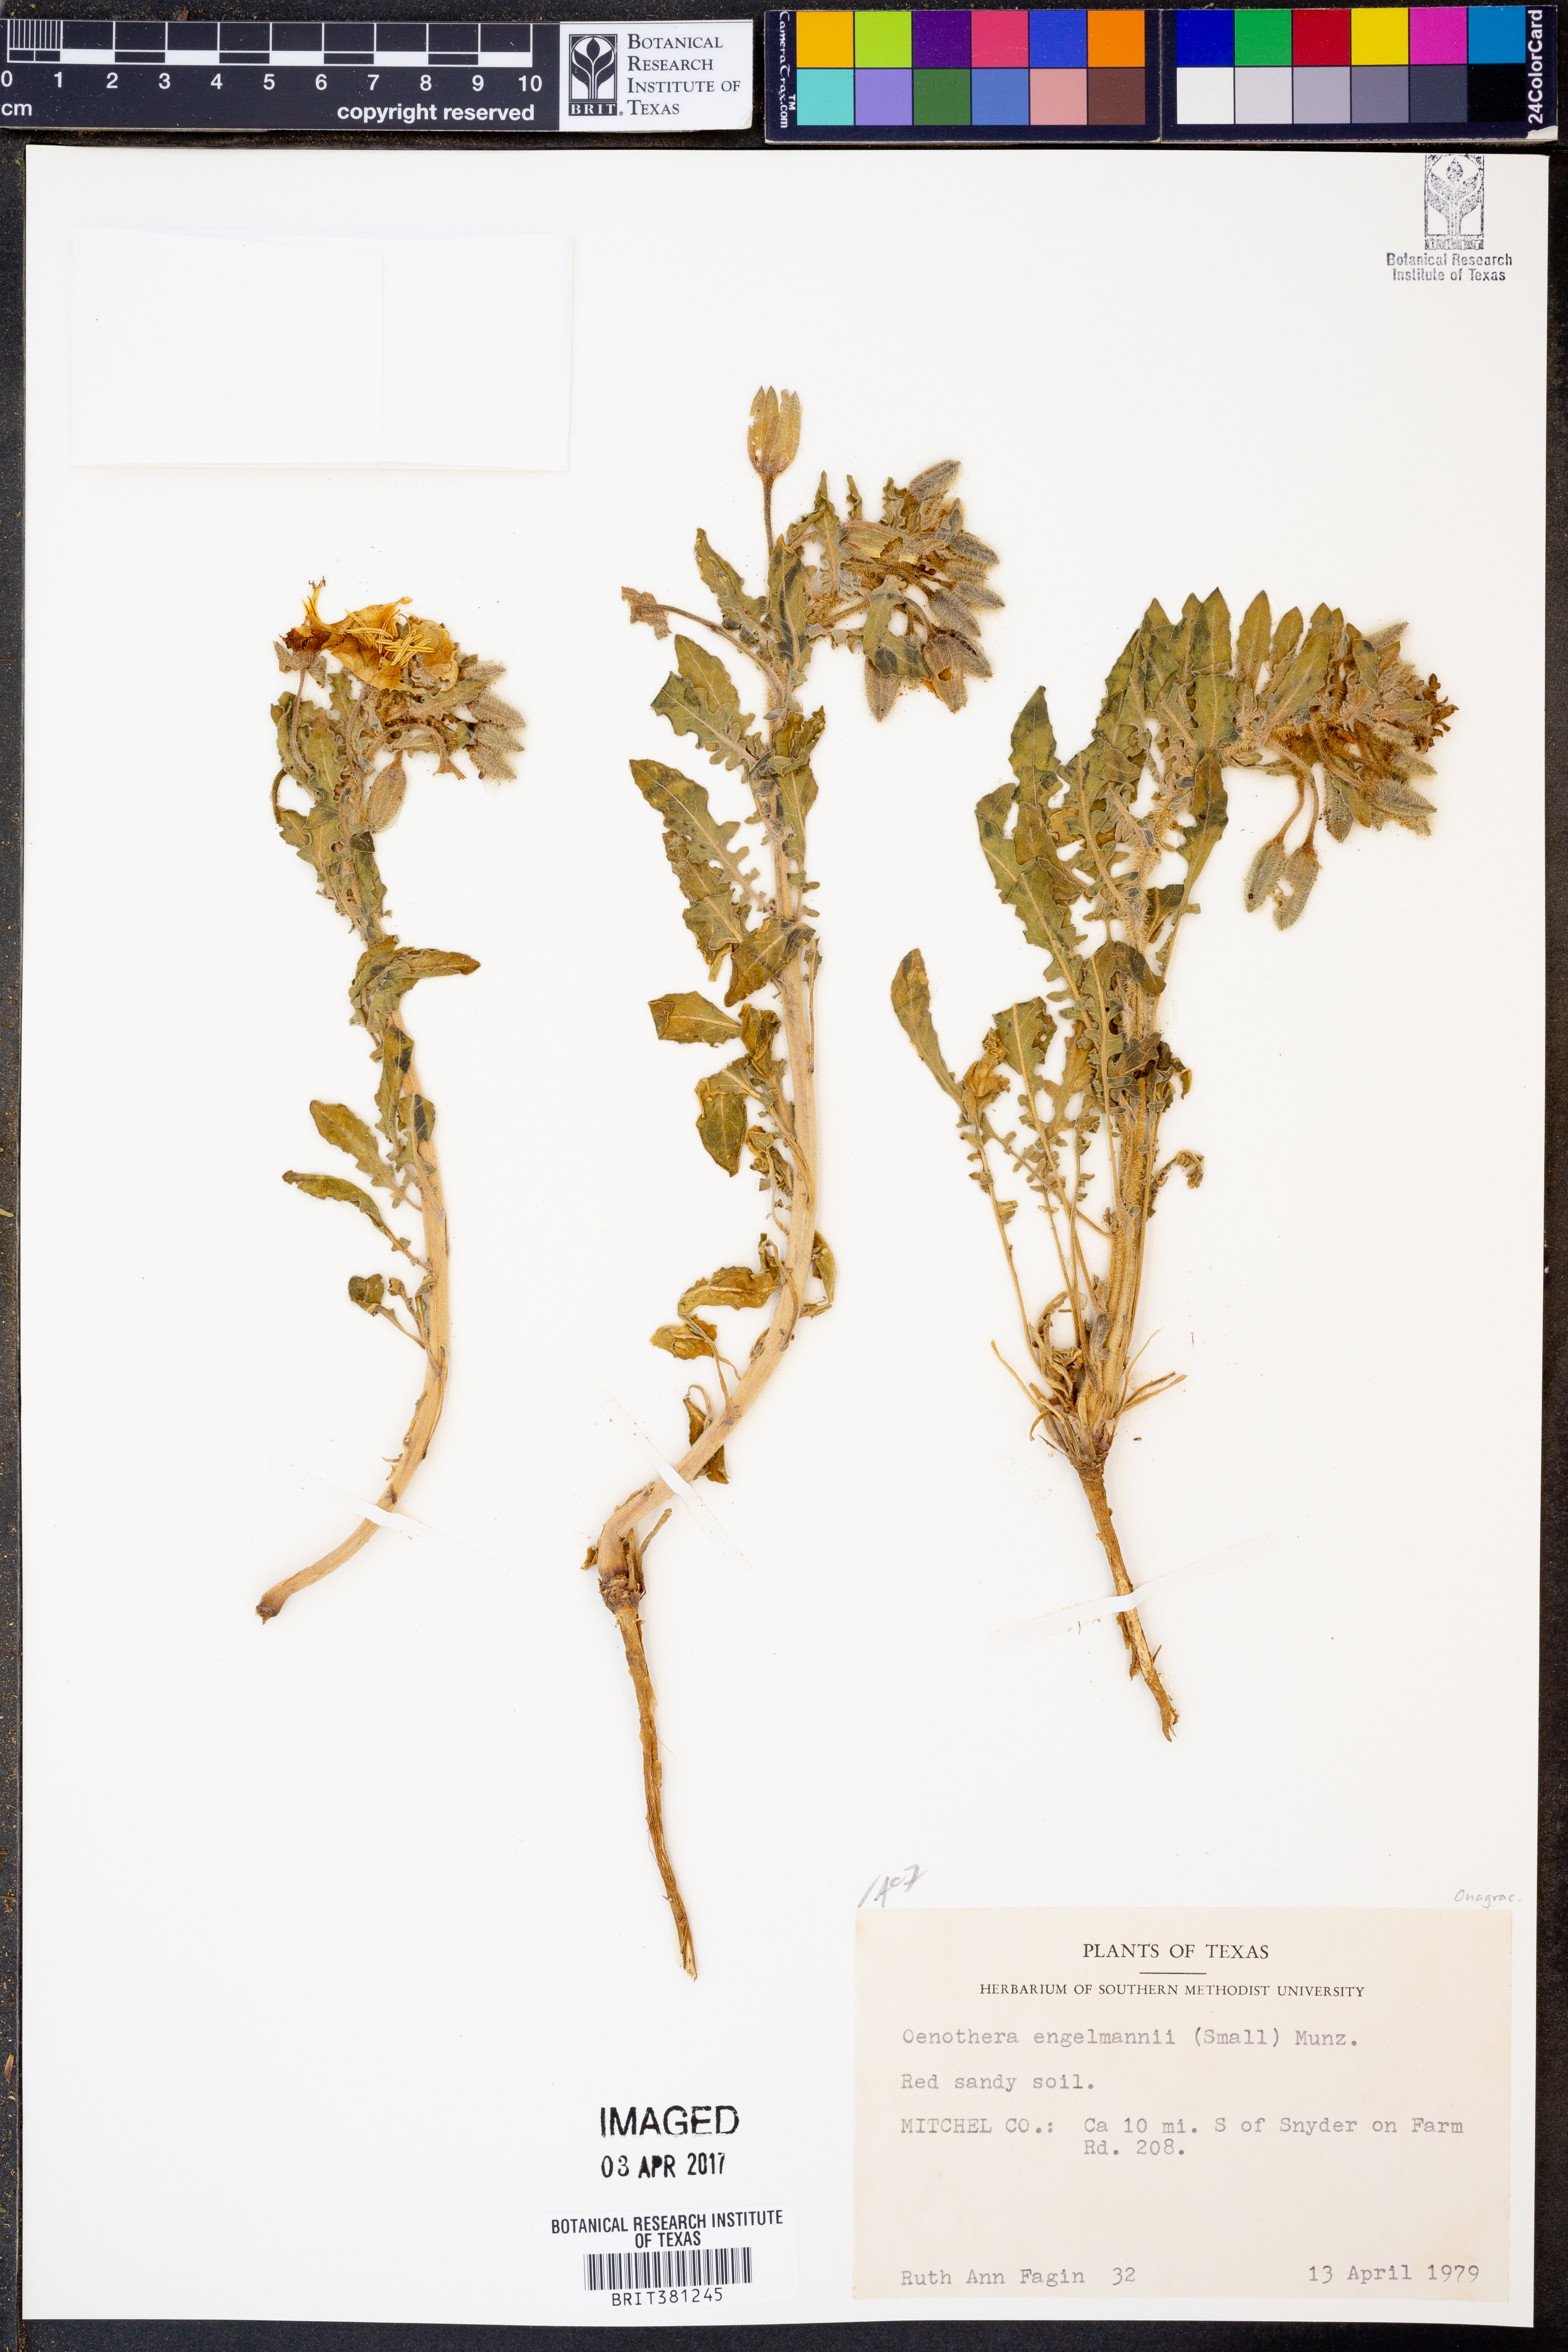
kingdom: Plantae
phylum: Tracheophyta
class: Magnoliopsida
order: Myrtales
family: Onagraceae
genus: Oenothera
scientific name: Oenothera engelmannii
